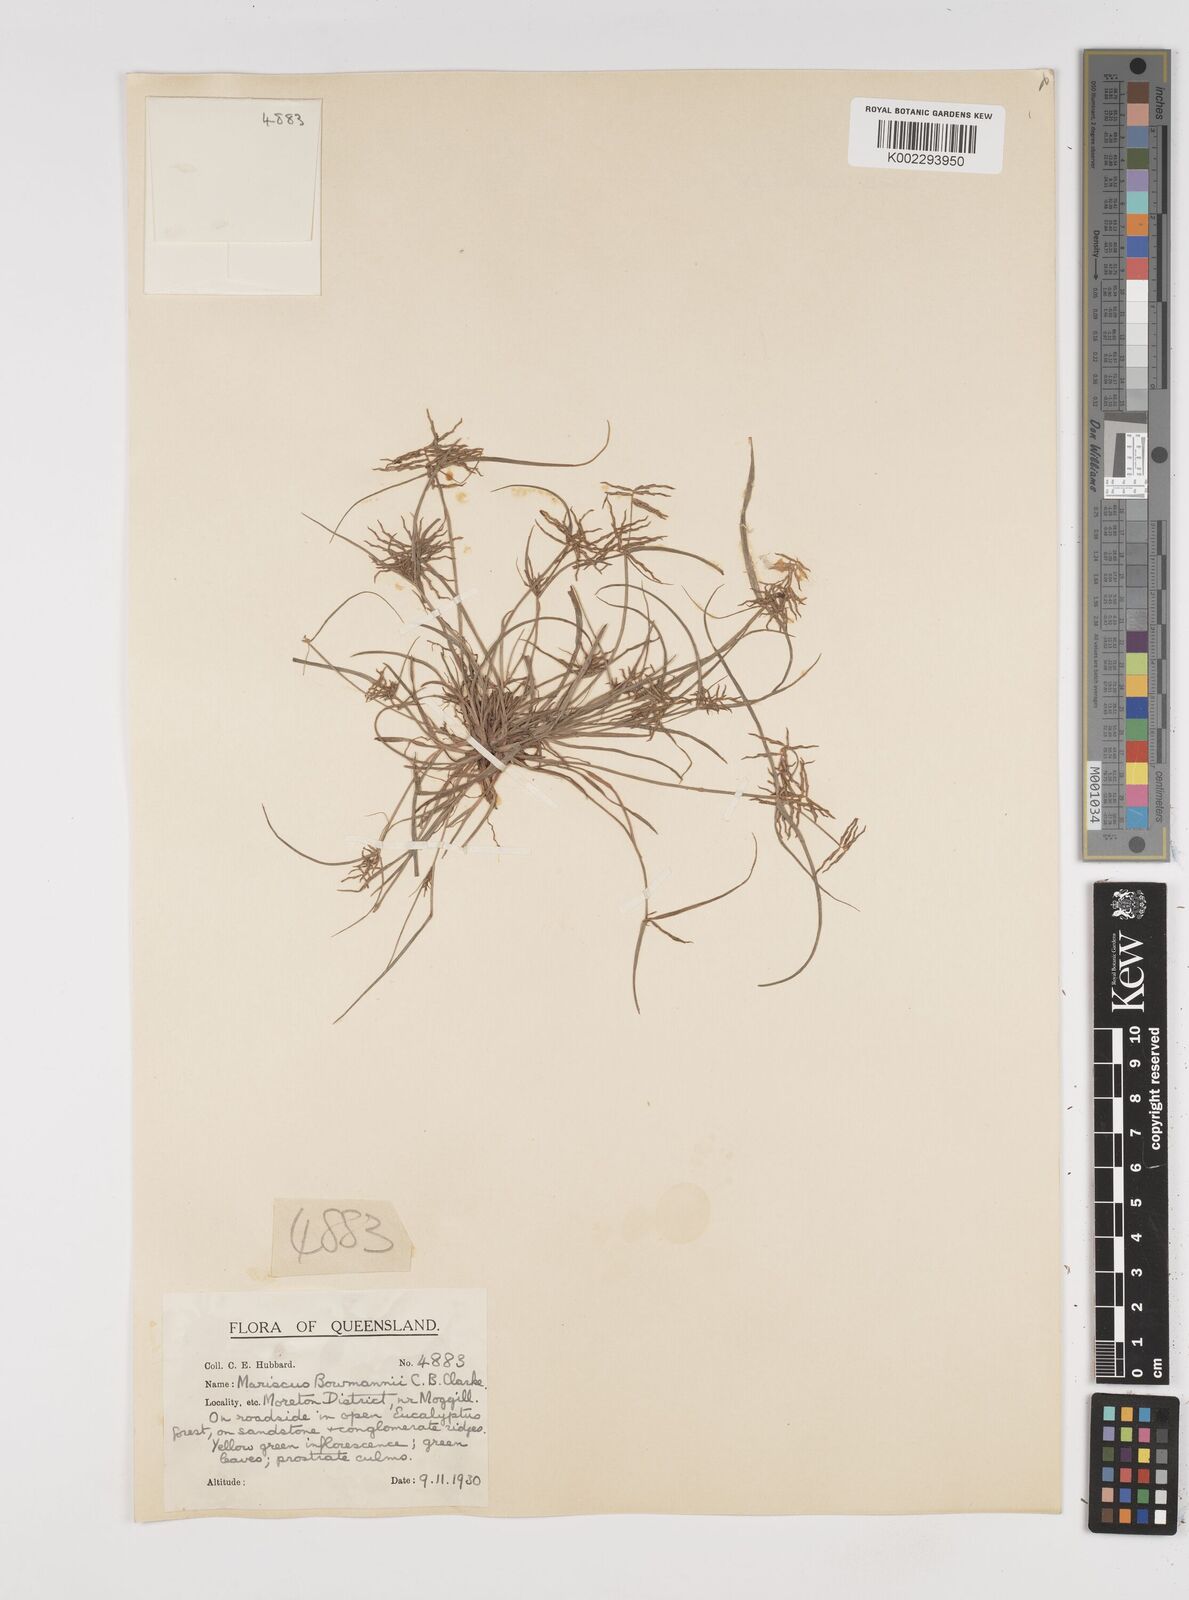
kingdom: Plantae
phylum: Tracheophyta
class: Liliopsida
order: Poales
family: Cyperaceae
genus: Cyperus
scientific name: Cyperus bowmanni
